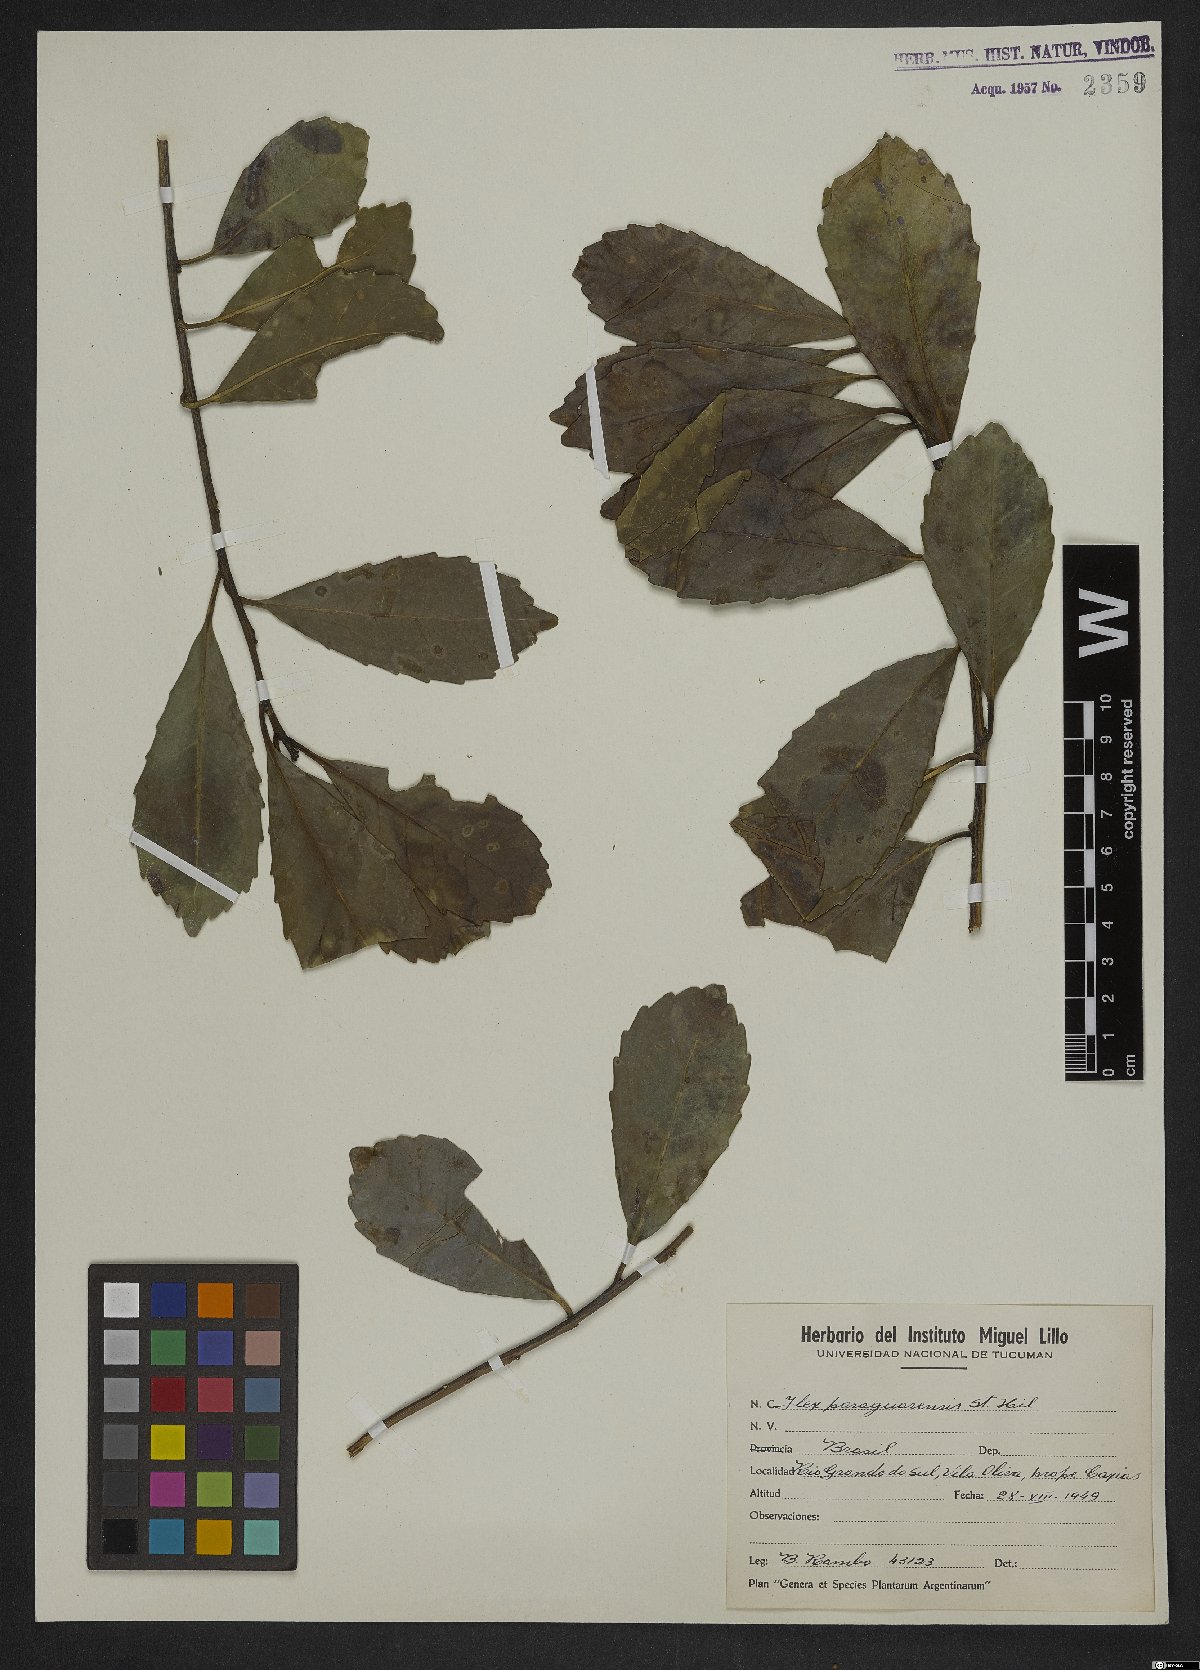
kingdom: Plantae
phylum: Tracheophyta
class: Magnoliopsida
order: Aquifoliales
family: Aquifoliaceae
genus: Ilex
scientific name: Ilex paraguariensis
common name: Paraguay tea
